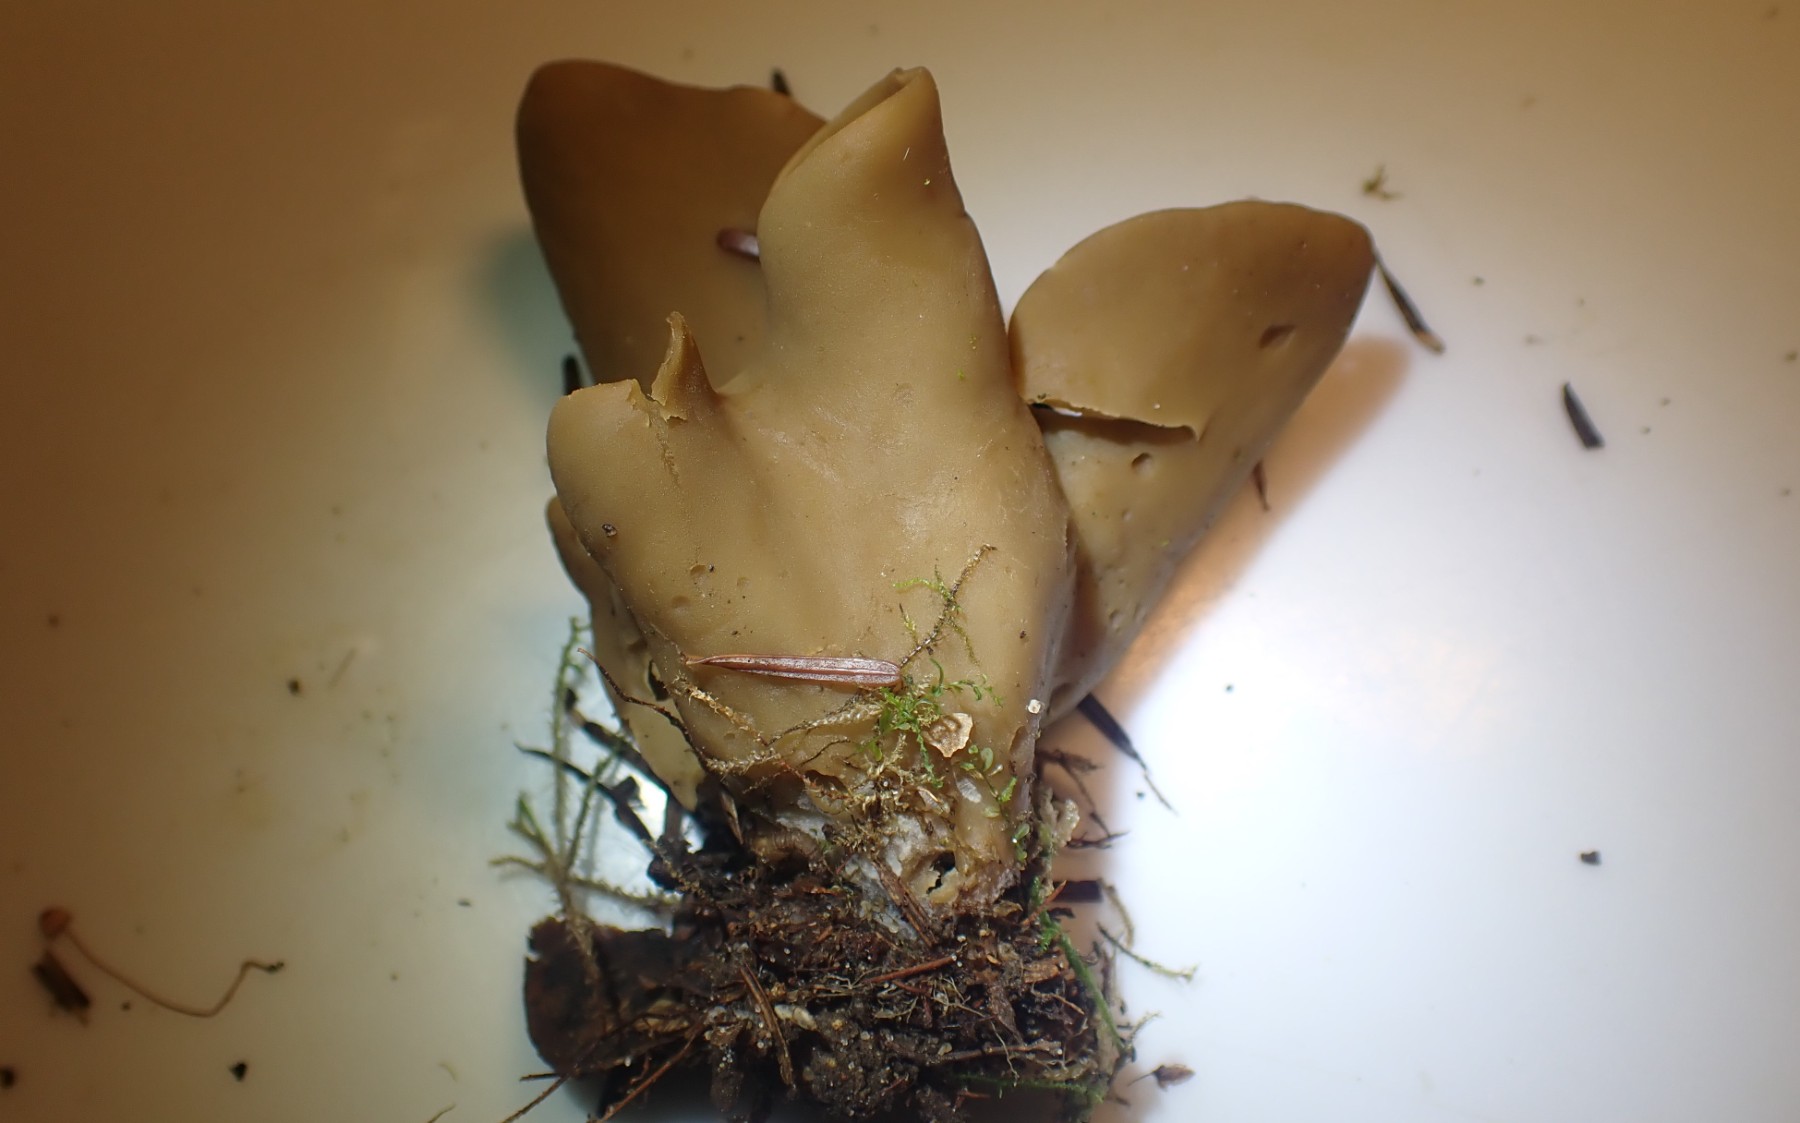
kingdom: Fungi
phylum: Ascomycota
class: Pezizomycetes
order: Pezizales
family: Otideaceae
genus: Otidea
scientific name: Otidea
